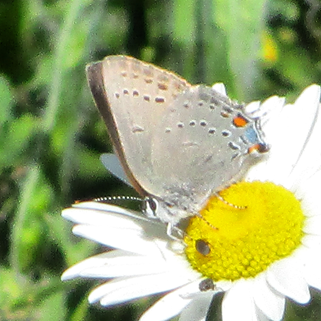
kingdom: Animalia
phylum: Arthropoda
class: Insecta
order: Lepidoptera
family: Lycaenidae
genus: Strymon
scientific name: Strymon sylvinus
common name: Sylvan Hairstreak
